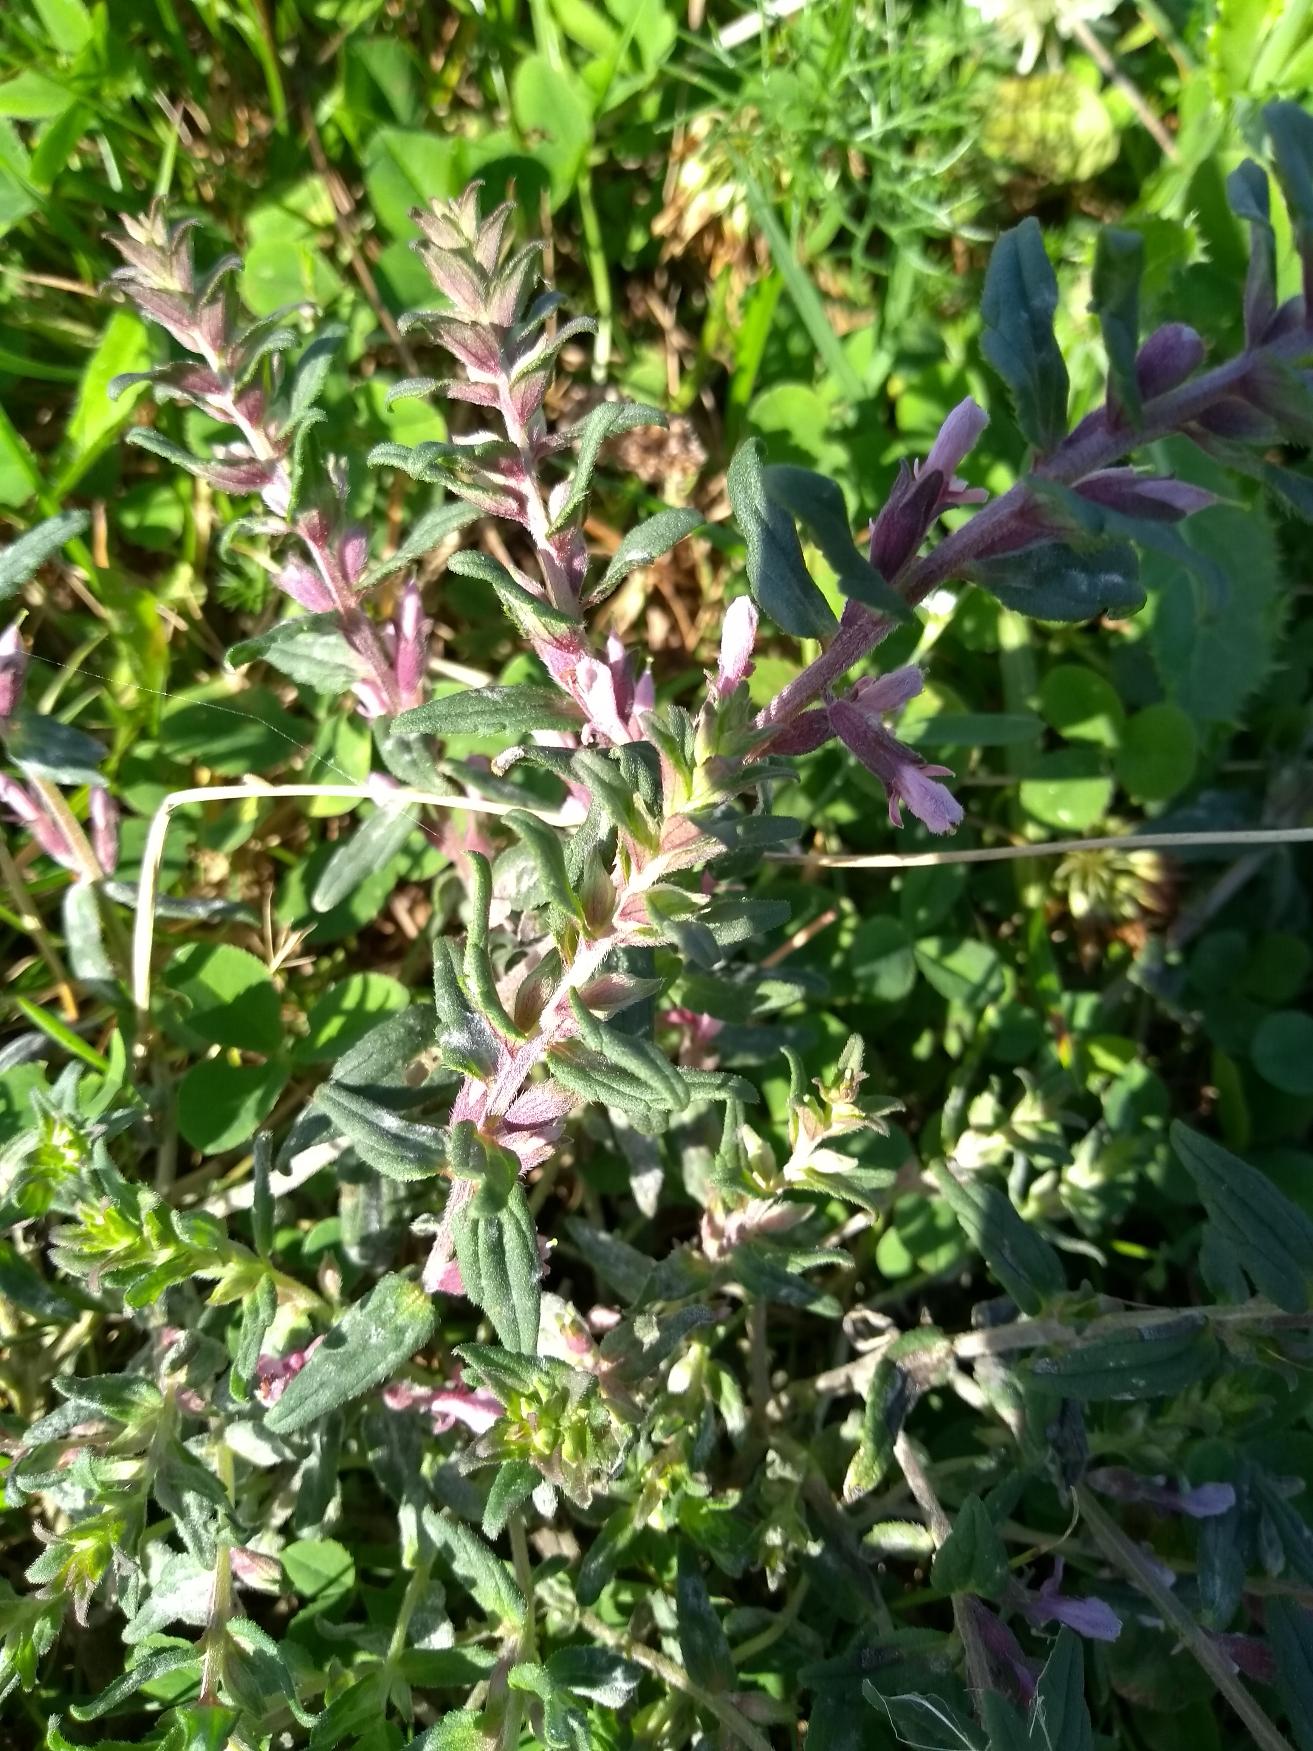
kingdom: Plantae
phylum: Tracheophyta
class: Magnoliopsida
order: Lamiales
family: Orobanchaceae
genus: Odontites
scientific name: Odontites
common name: Rødtopslægten
